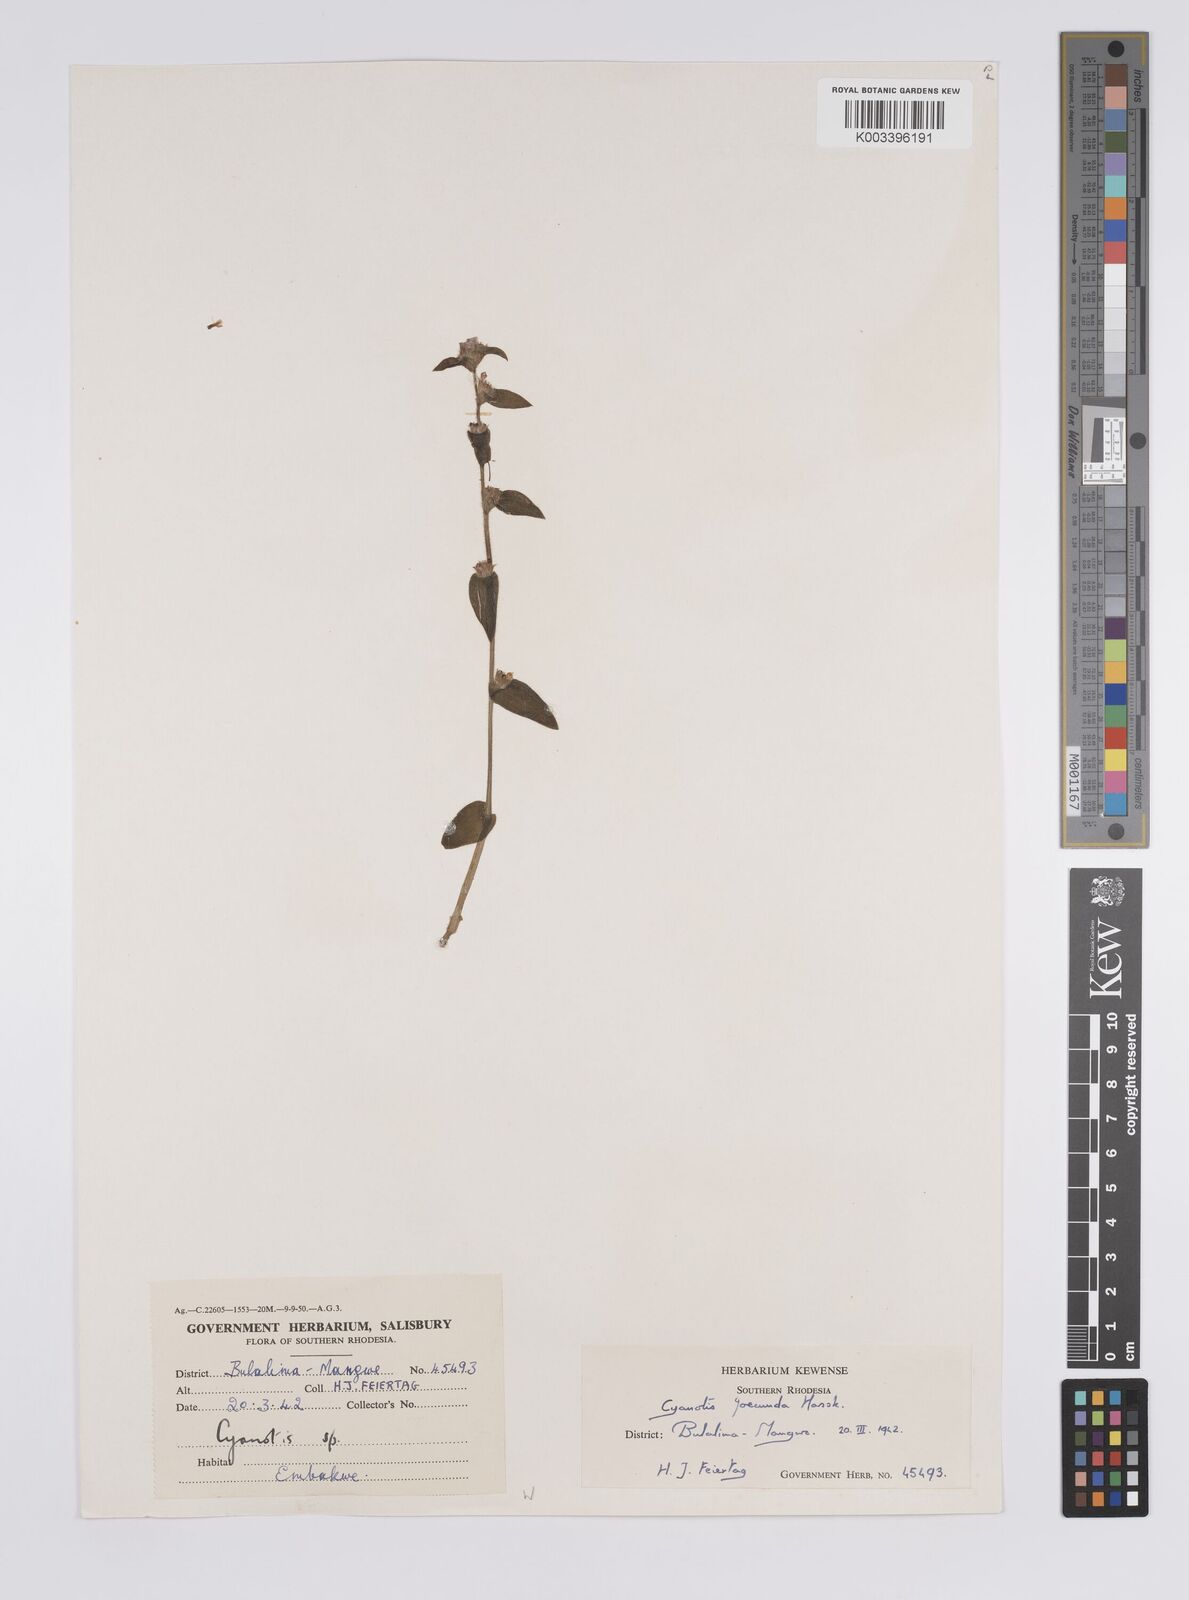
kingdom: Plantae
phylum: Tracheophyta
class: Liliopsida
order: Commelinales
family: Commelinaceae
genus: Cyanotis
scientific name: Cyanotis foecunda
